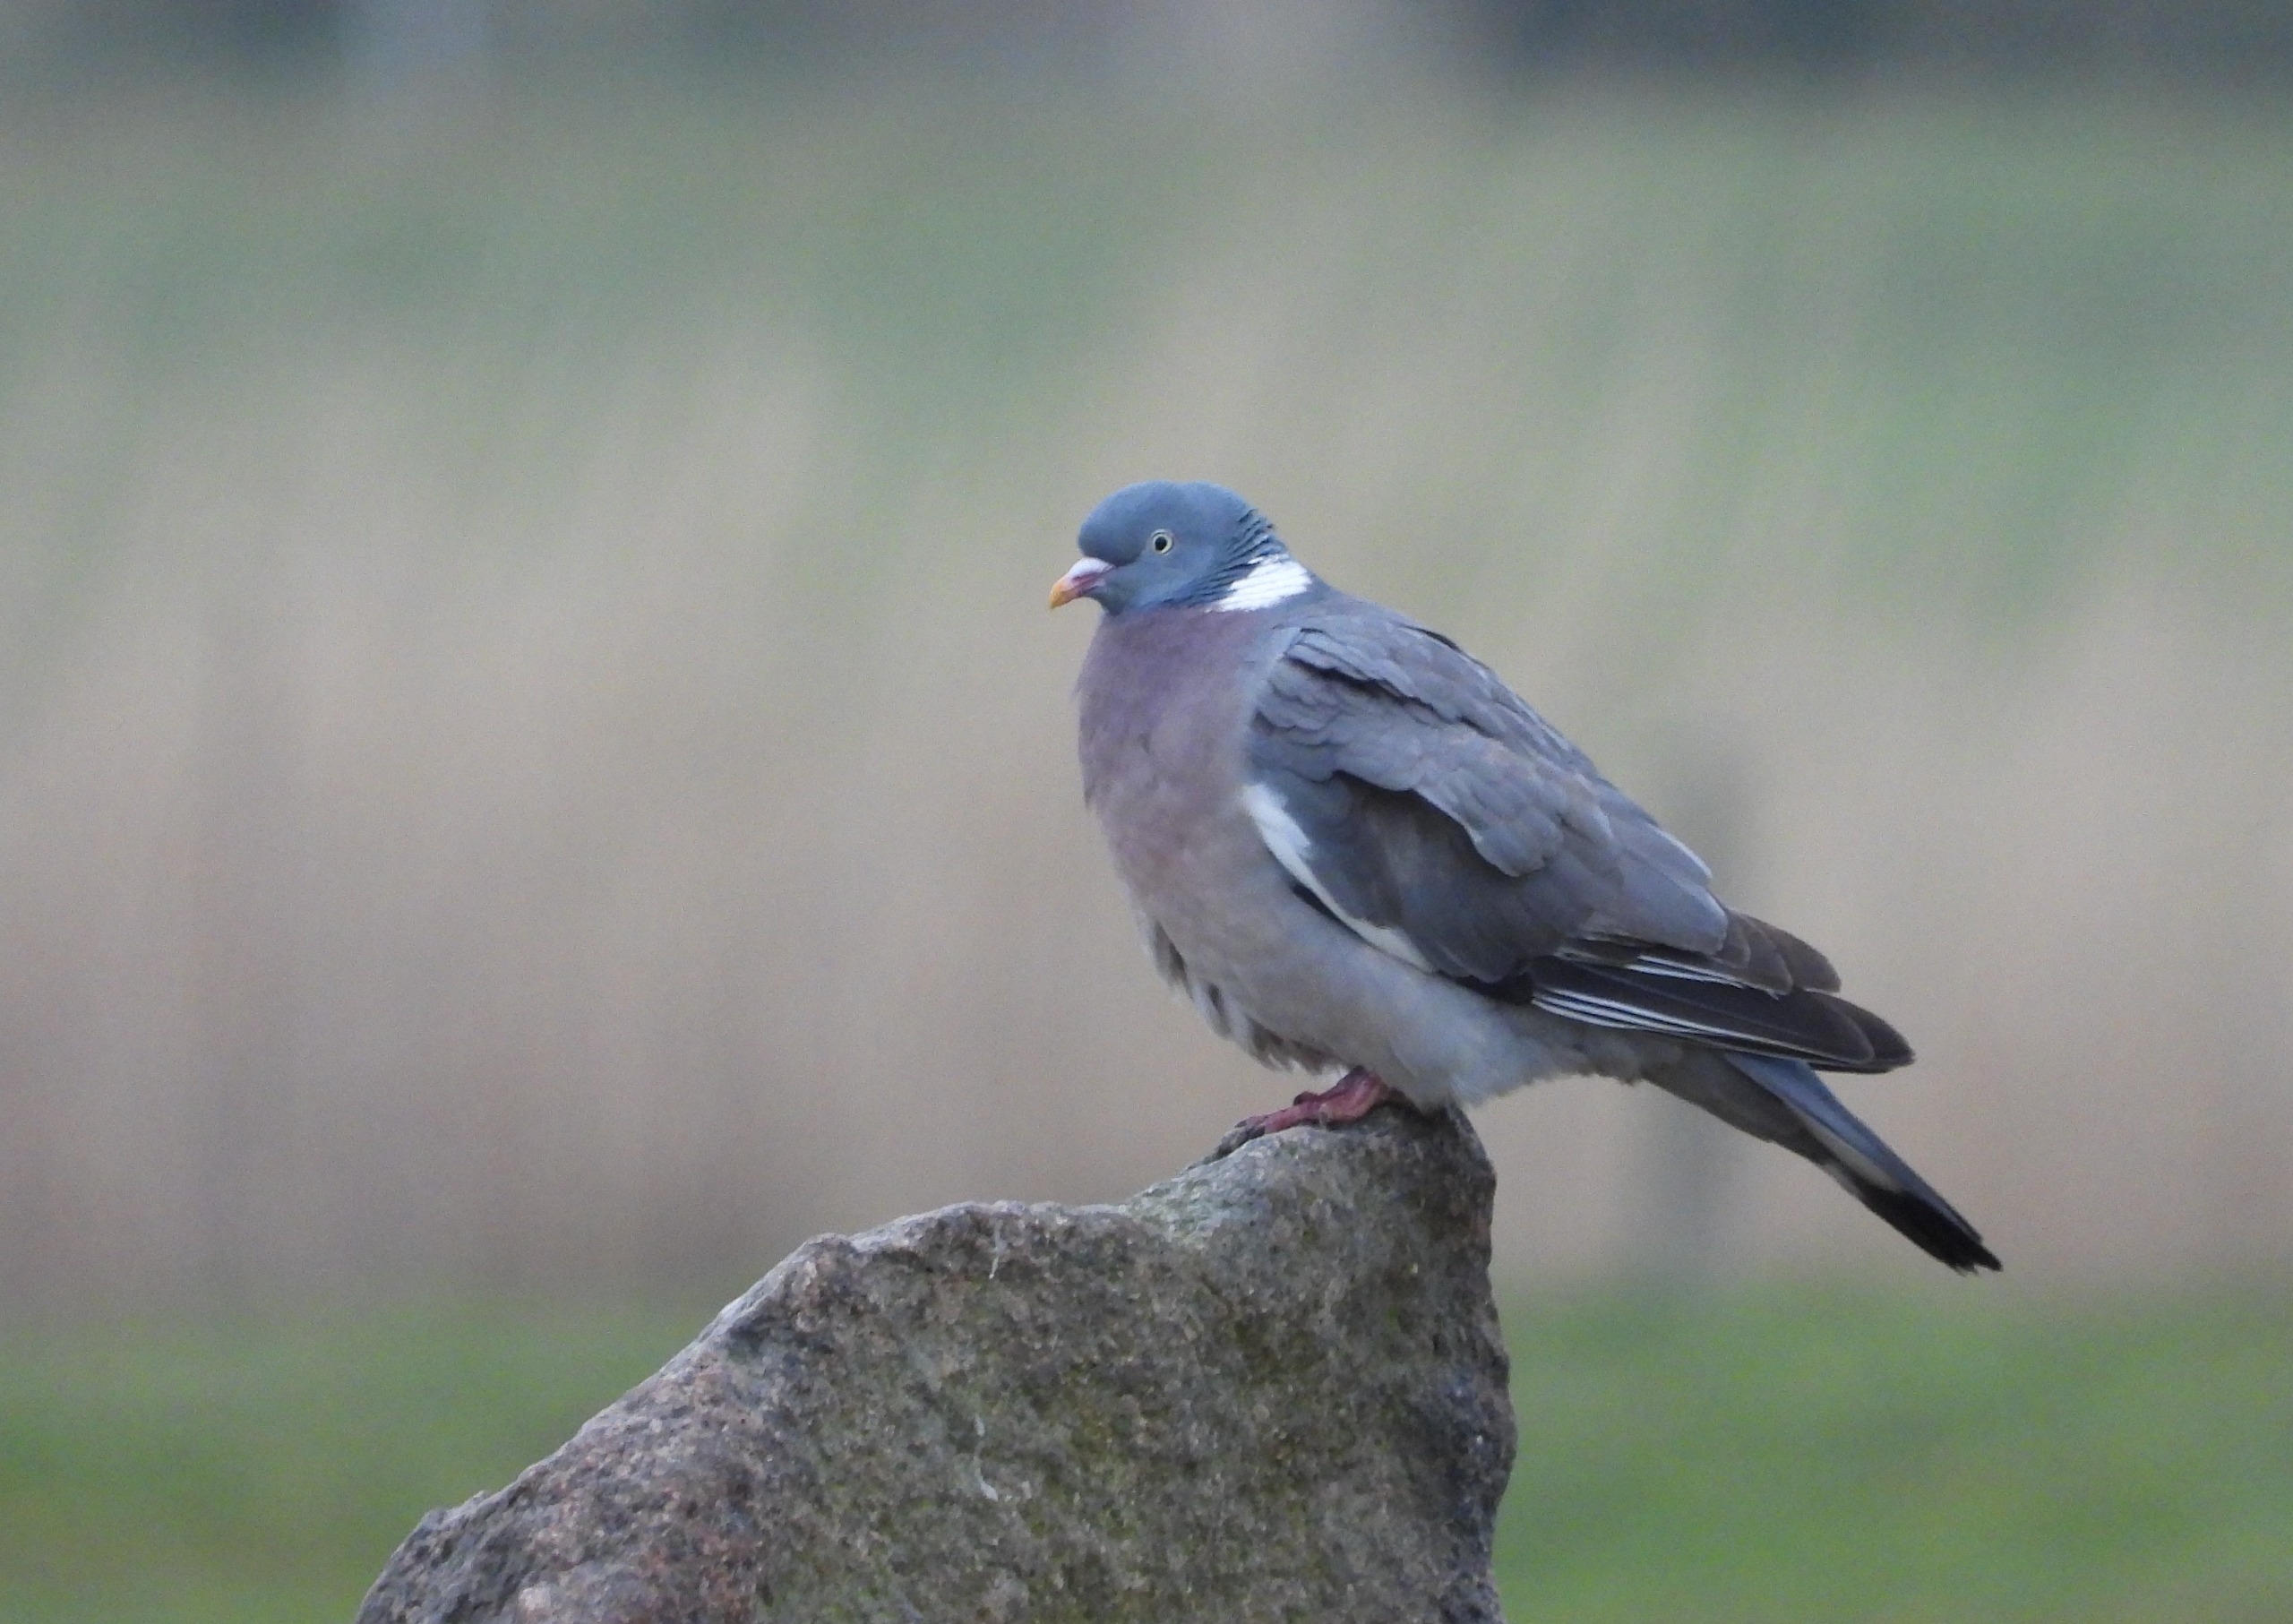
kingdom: Animalia
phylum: Chordata
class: Aves
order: Columbiformes
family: Columbidae
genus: Columba
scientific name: Columba palumbus
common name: Ringdue
